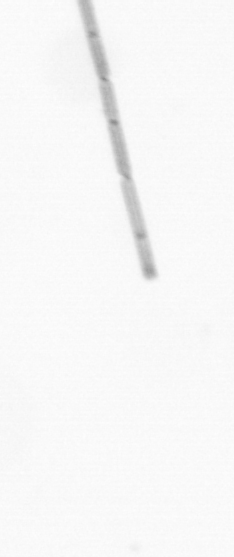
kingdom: Chromista
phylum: Ochrophyta
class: Bacillariophyceae
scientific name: Bacillariophyceae
